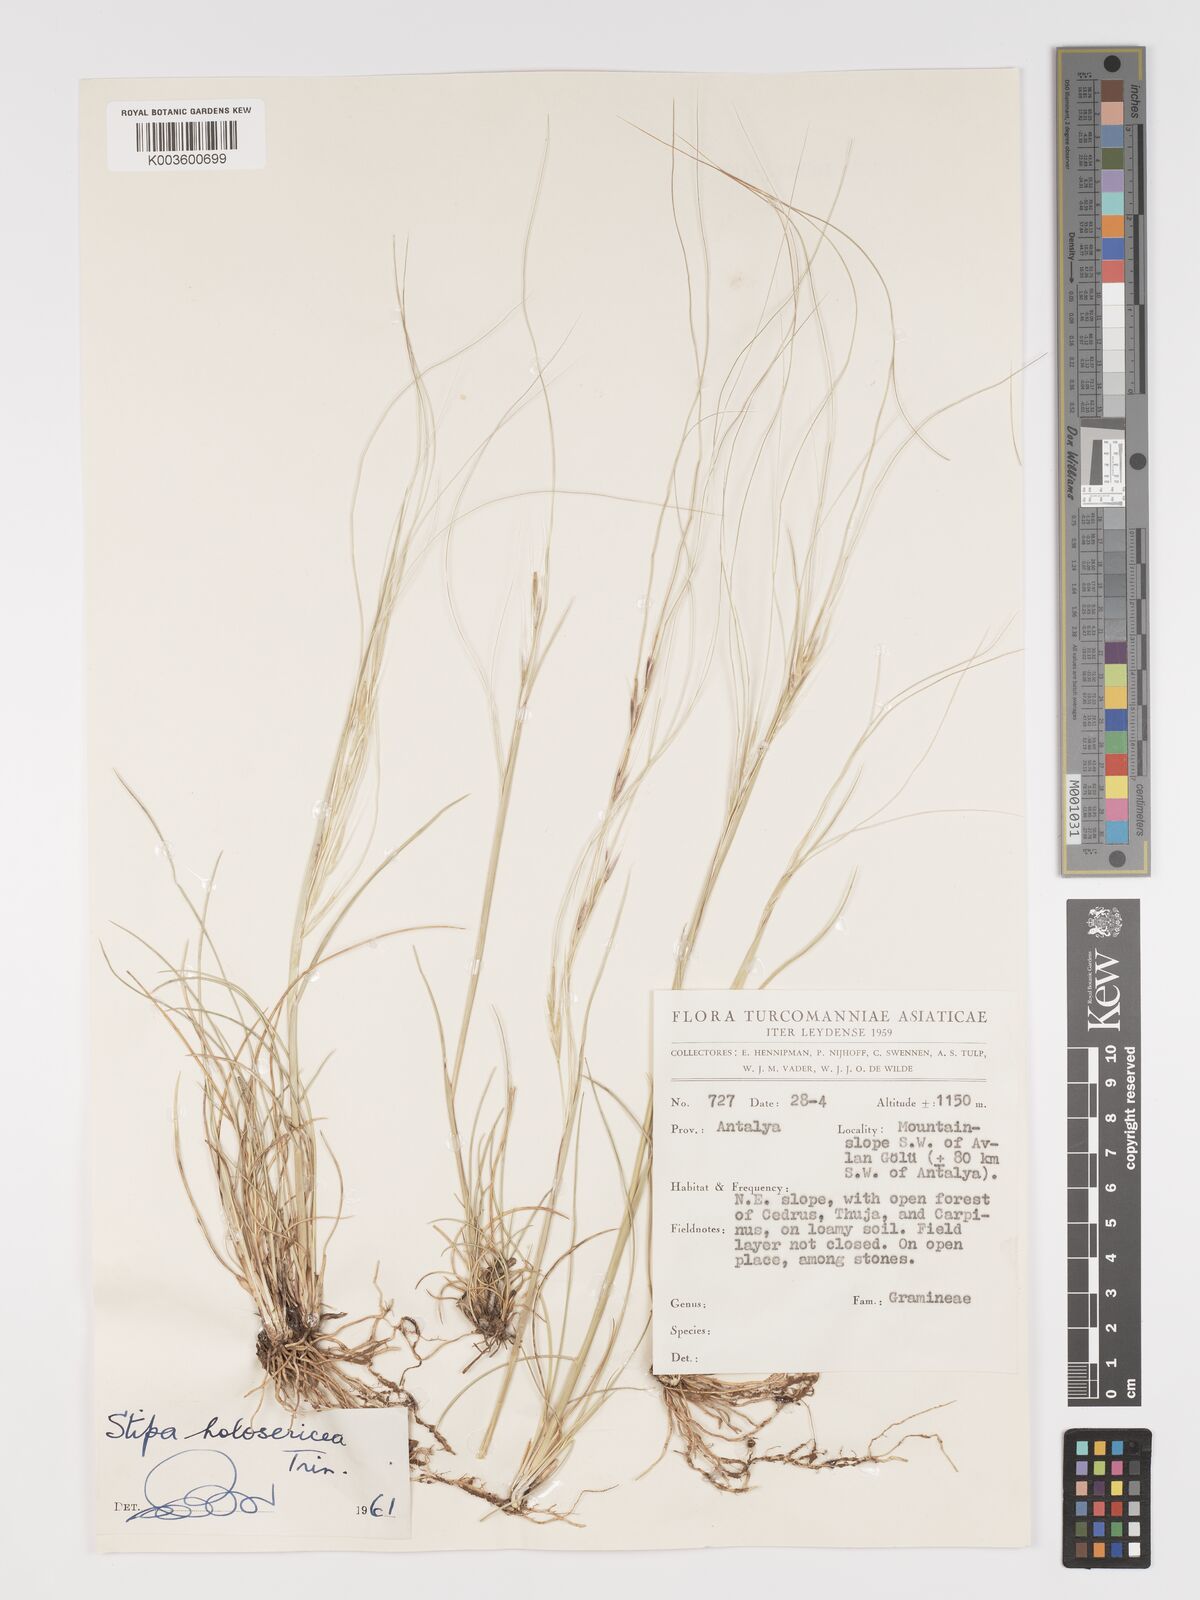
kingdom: Plantae
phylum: Tracheophyta
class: Liliopsida
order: Poales
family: Poaceae
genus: Stipa
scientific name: Stipa holosericea
